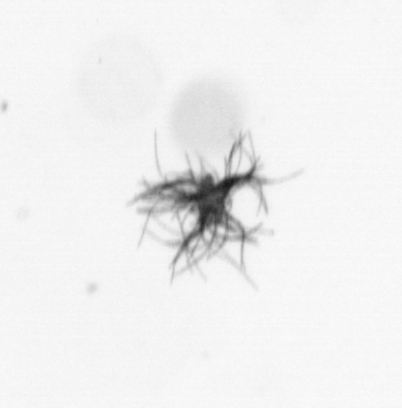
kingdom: Bacteria
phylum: Cyanobacteria
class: Cyanobacteriia
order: Cyanobacteriales
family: Microcoleaceae
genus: Trichodesmium
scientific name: Trichodesmium
